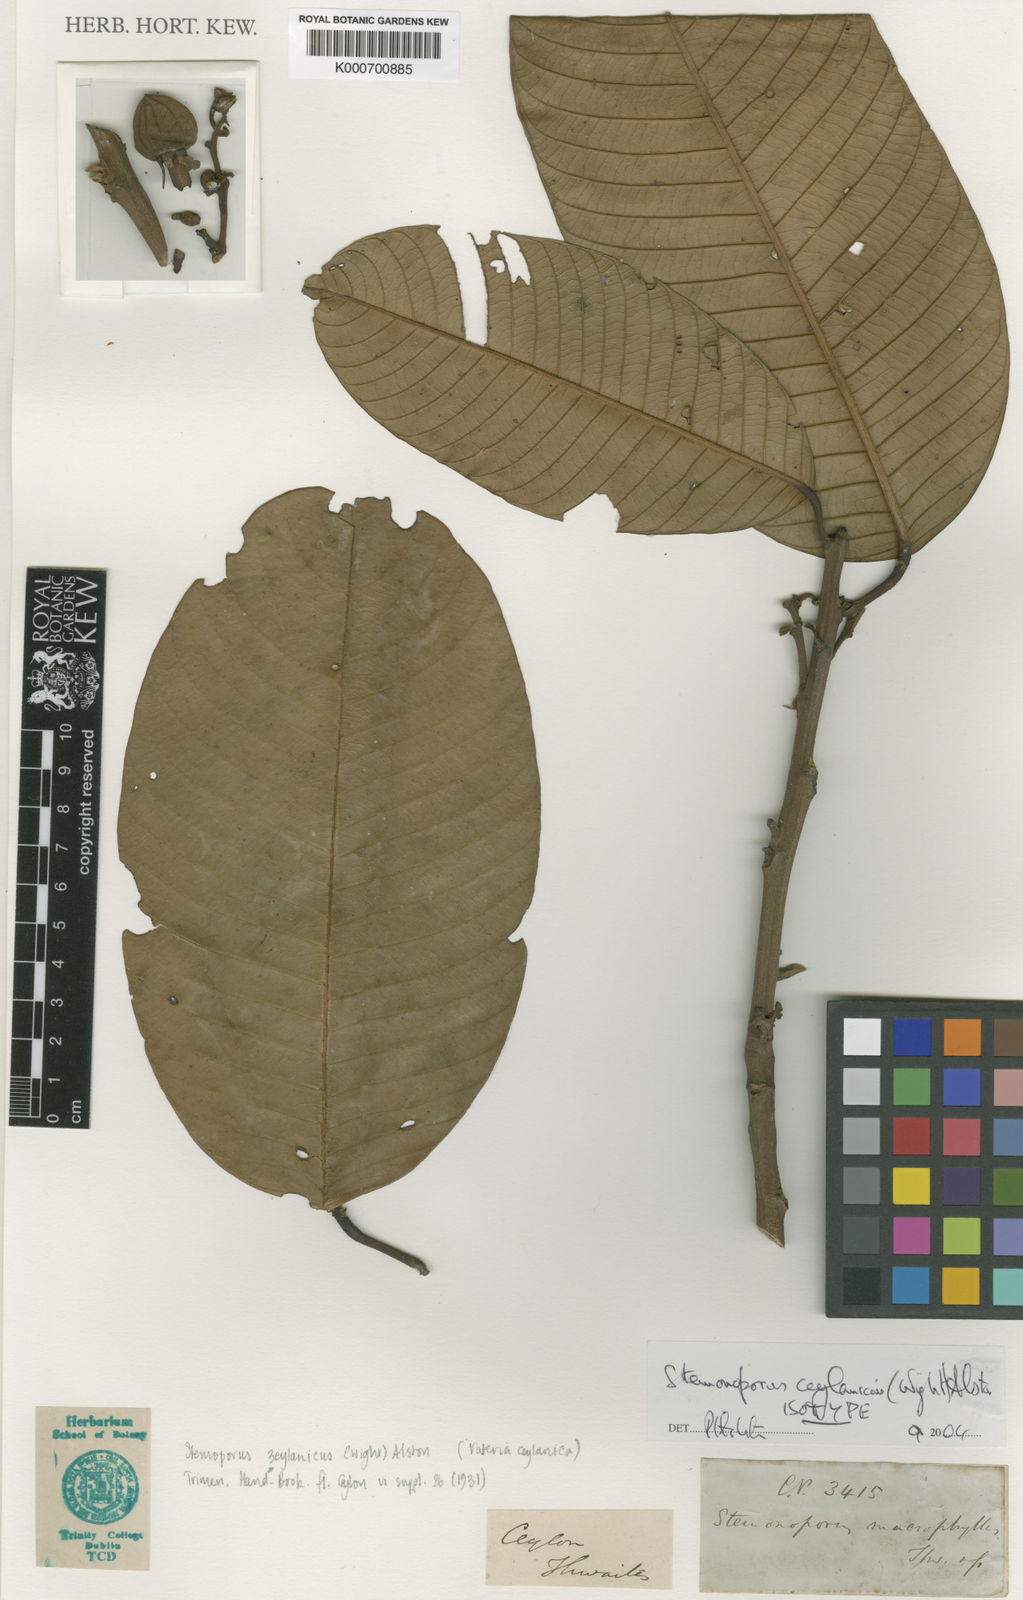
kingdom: Plantae
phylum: Tracheophyta
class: Magnoliopsida
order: Malvales
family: Dipterocarpaceae
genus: Stemonoporus
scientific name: Stemonoporus
